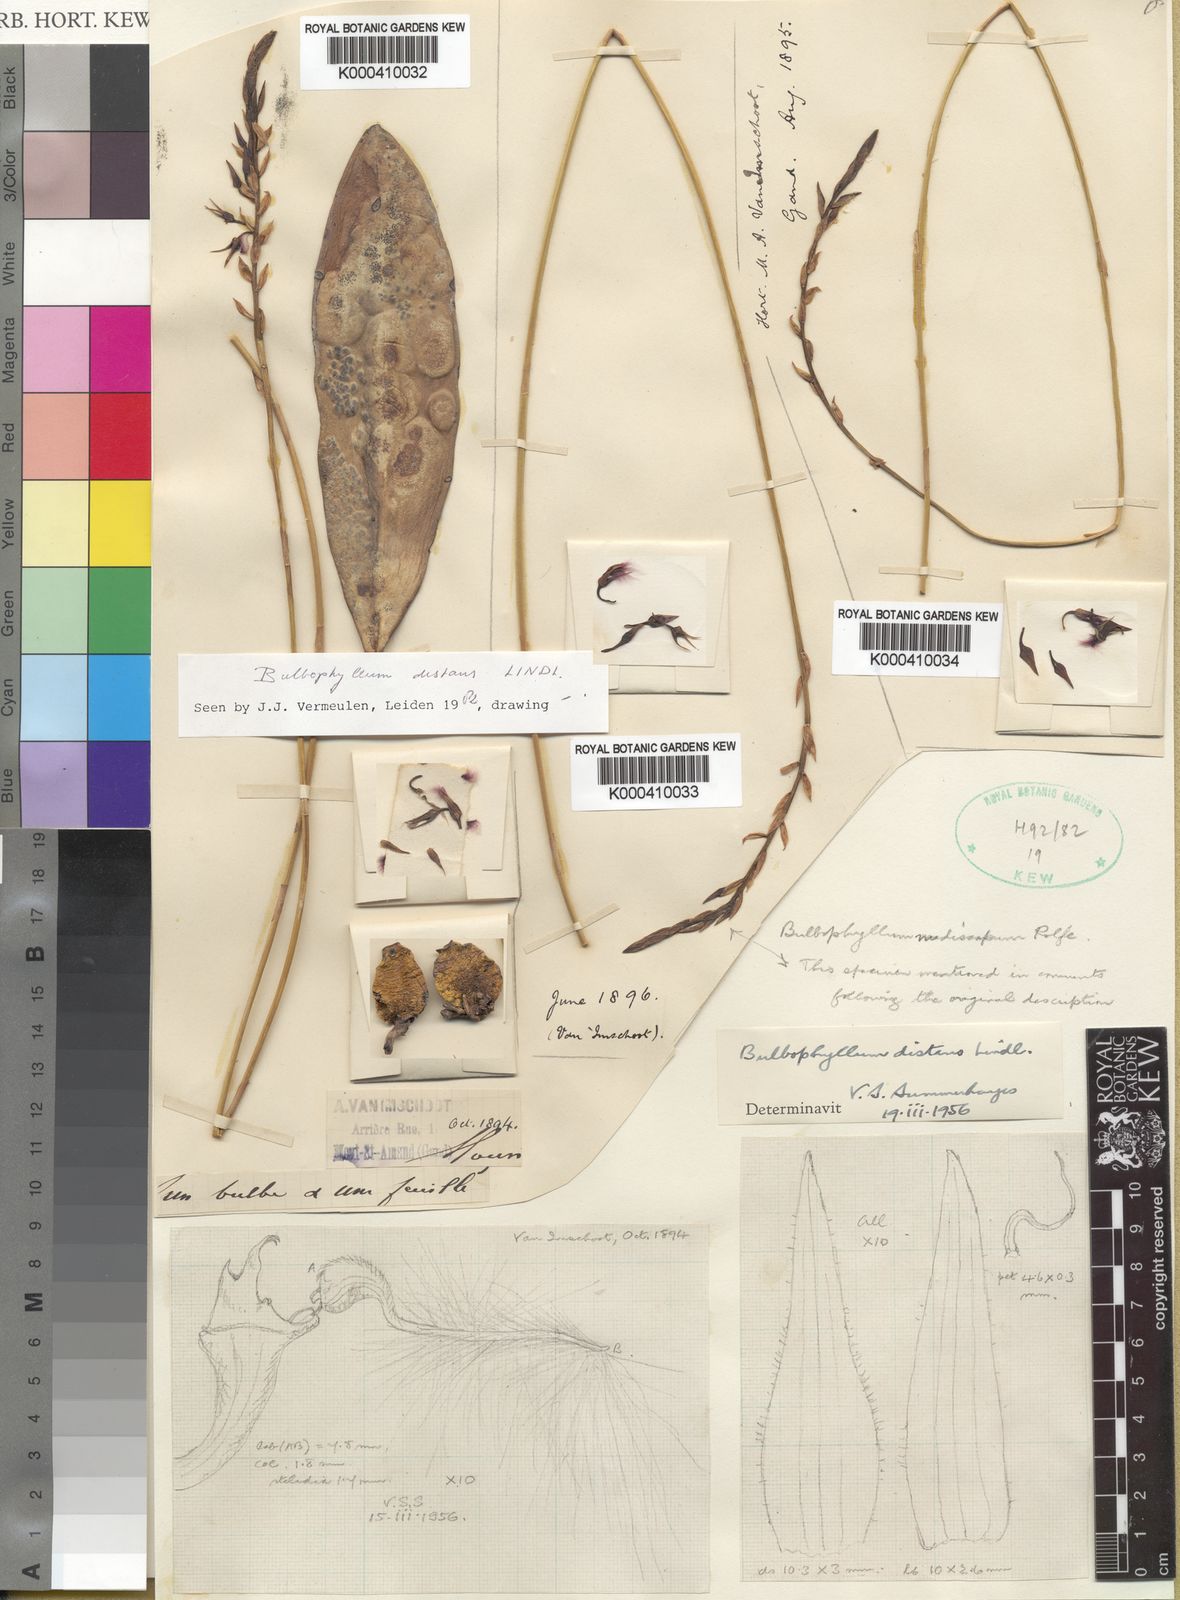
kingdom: Plantae
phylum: Tracheophyta
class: Liliopsida
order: Asparagales
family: Orchidaceae
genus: Bulbophyllum
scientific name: Bulbophyllum saltatorium
